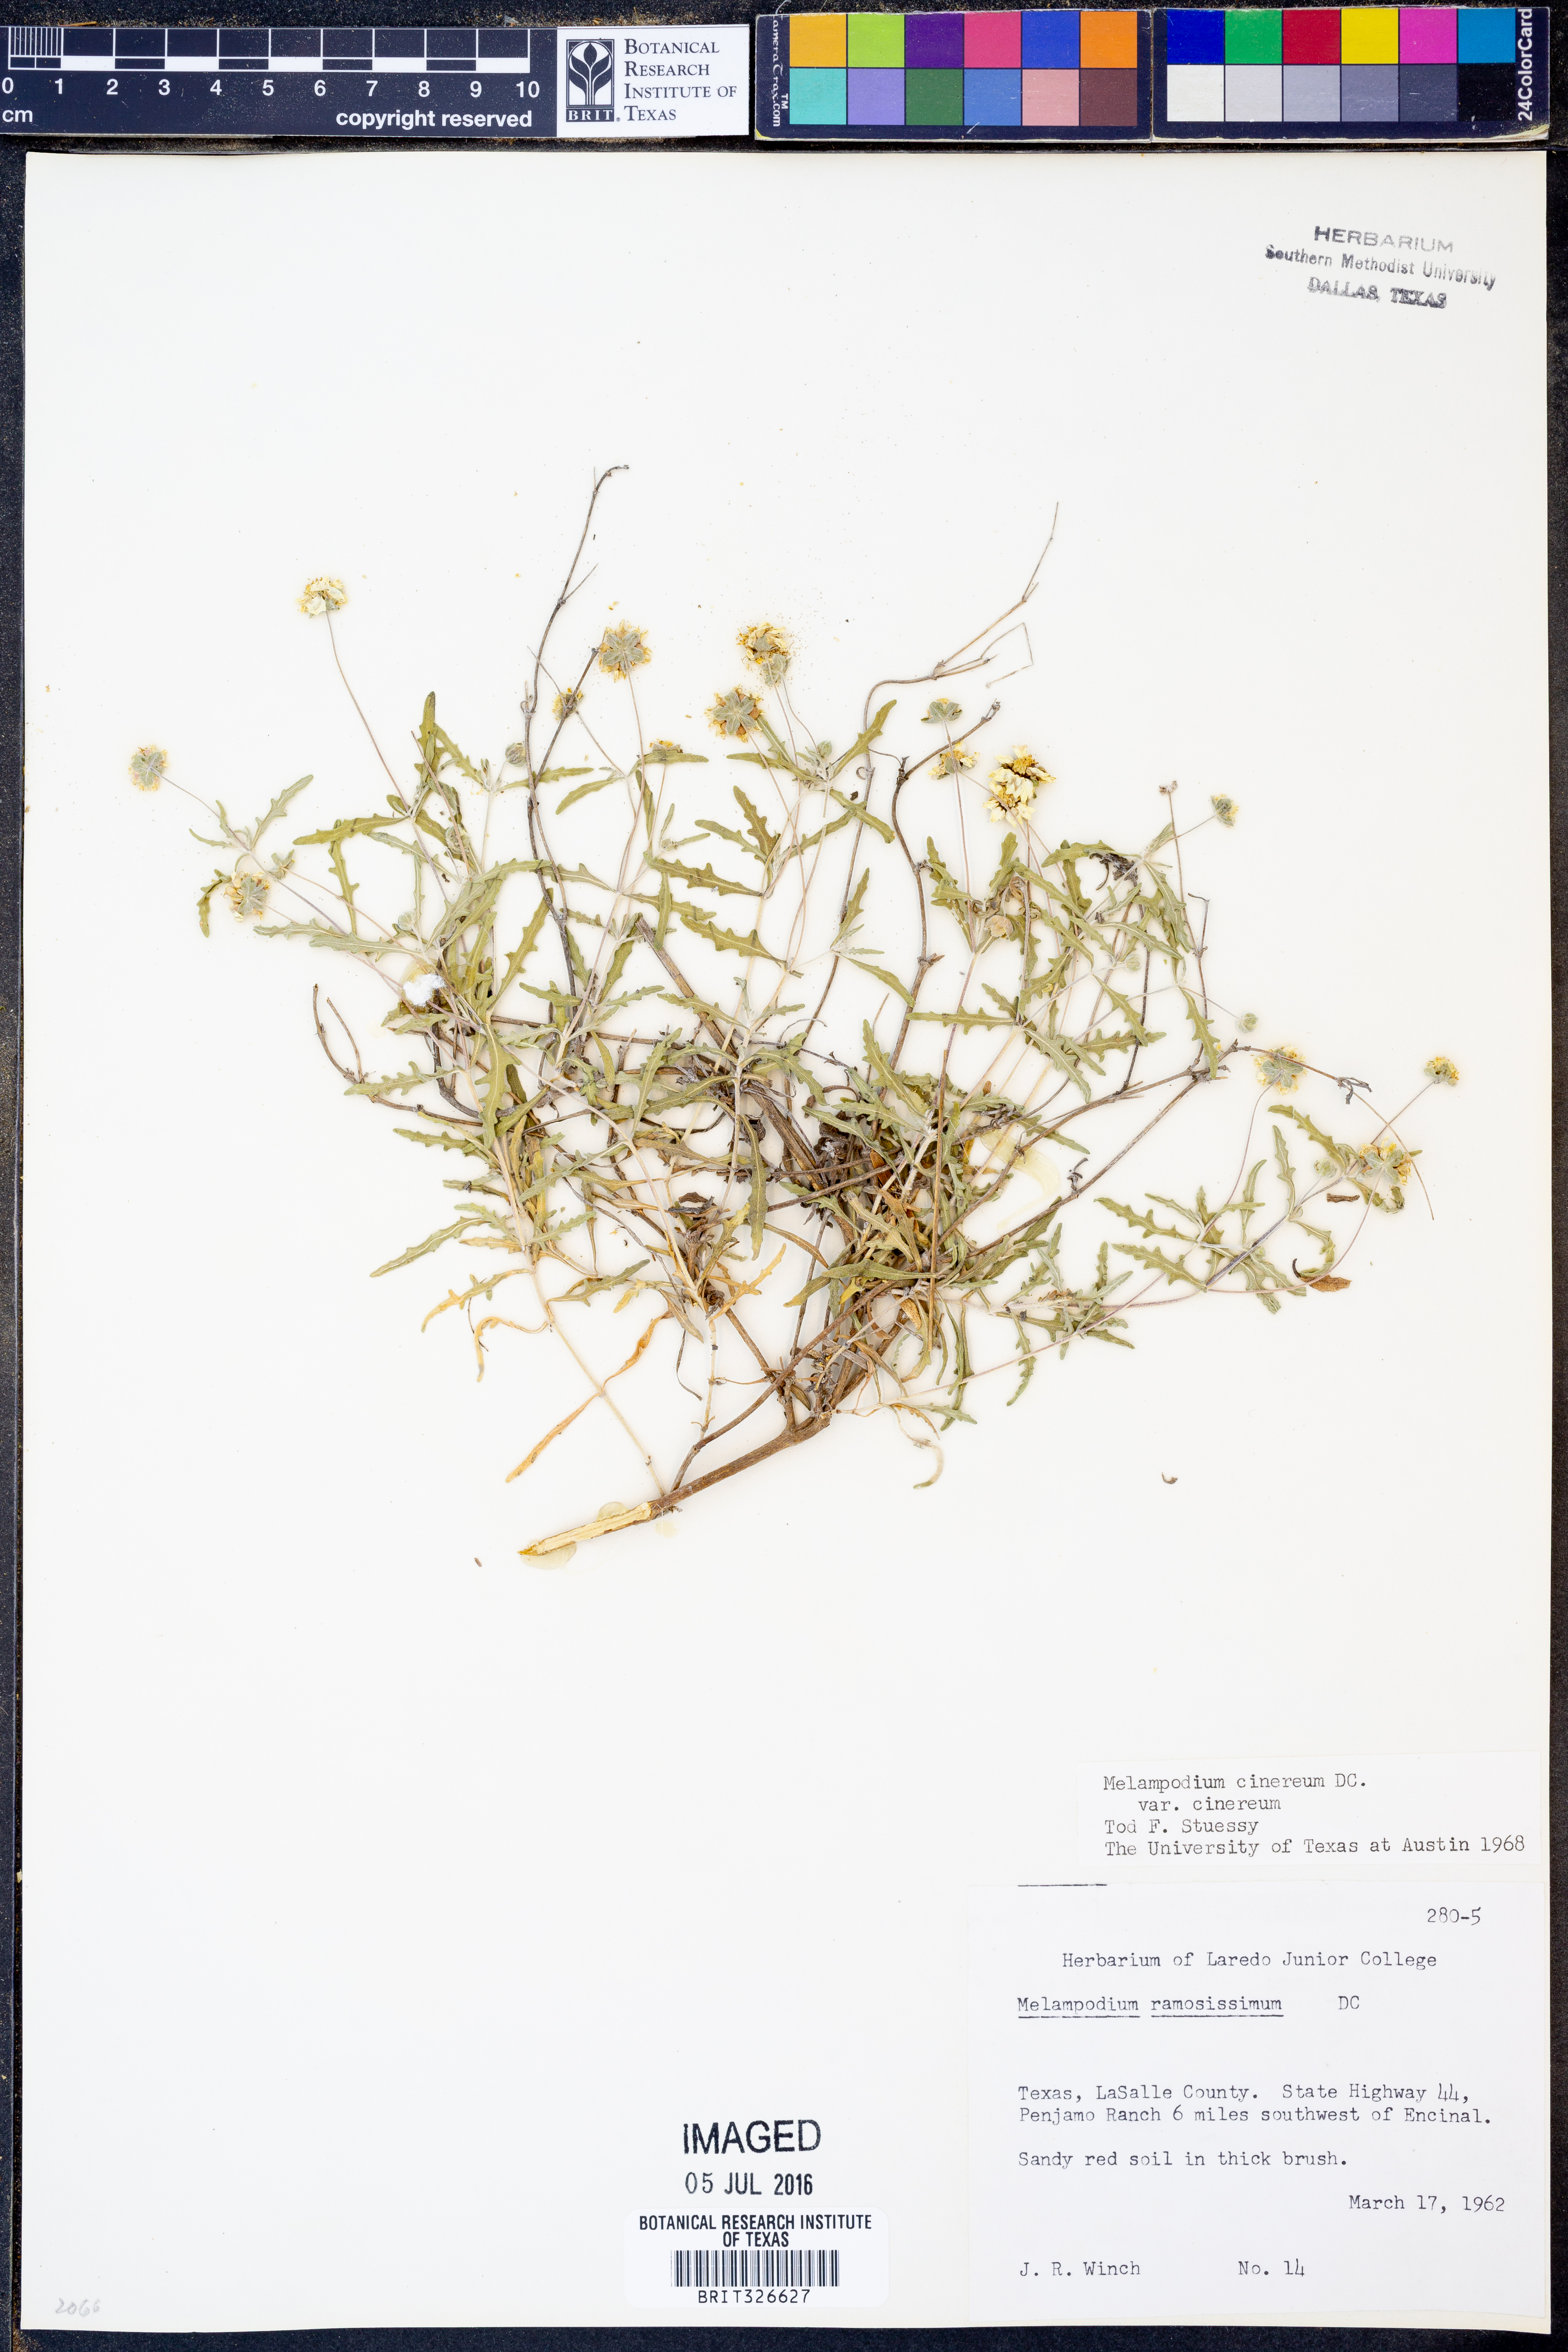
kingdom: Plantae
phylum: Tracheophyta
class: Magnoliopsida
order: Asterales
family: Asteraceae
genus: Melampodium
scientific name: Melampodium cinereum
